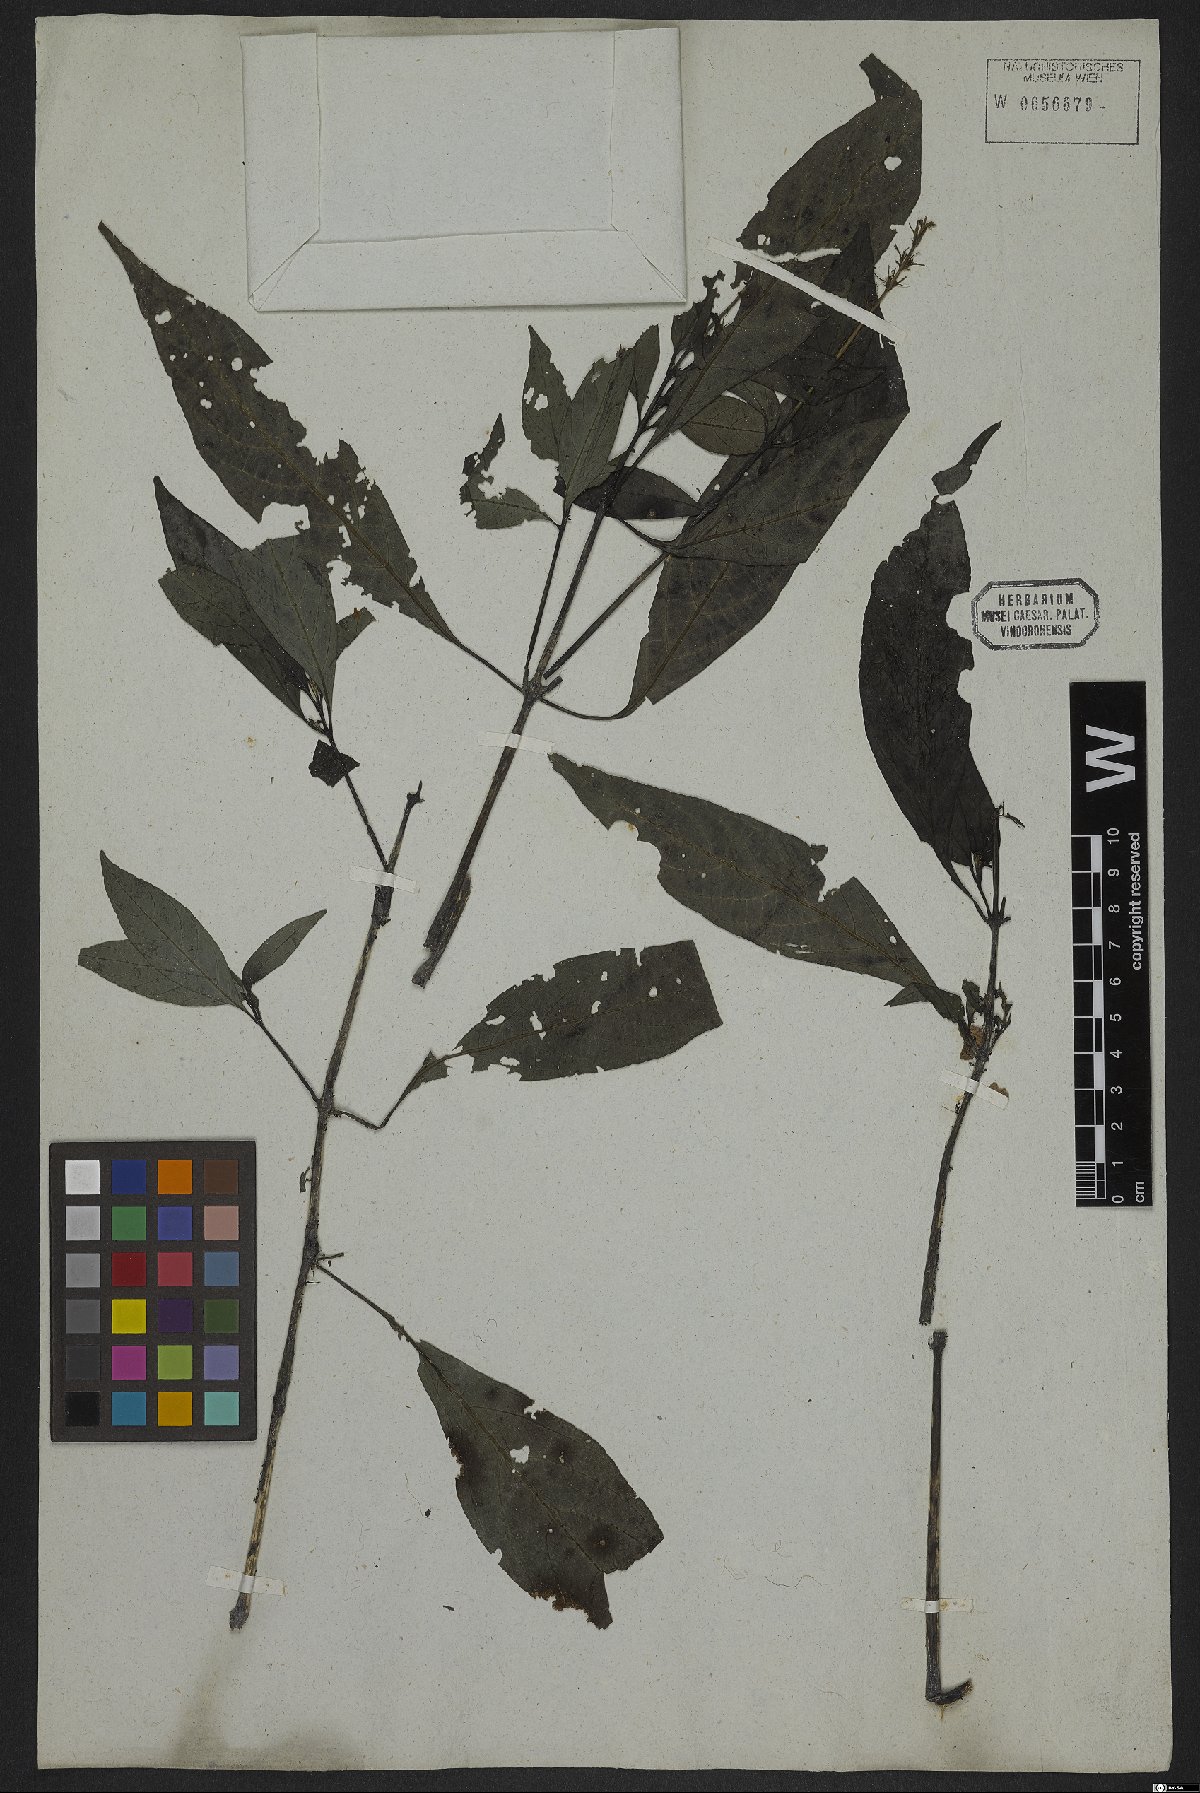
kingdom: Plantae
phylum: Tracheophyta
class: Magnoliopsida
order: Lamiales
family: Acanthaceae
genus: Gymnostachyum
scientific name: Gymnostachyum
